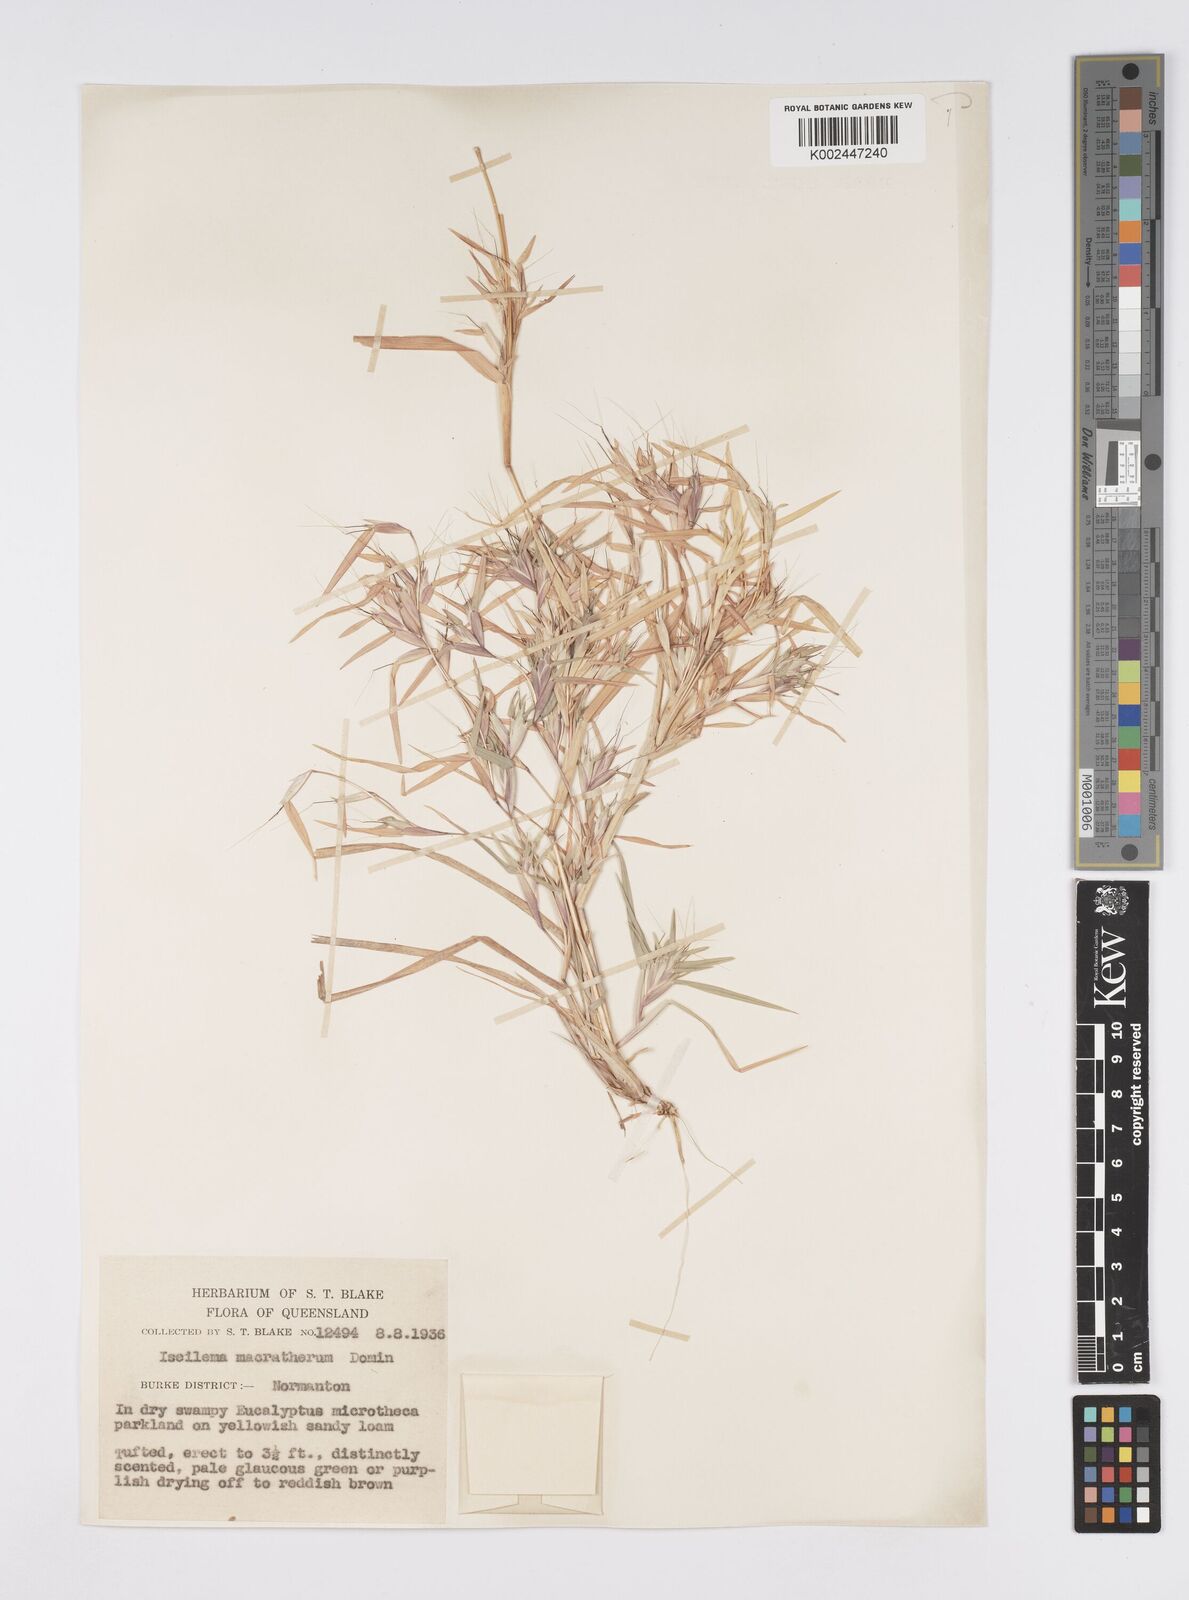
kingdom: Plantae
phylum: Tracheophyta
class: Liliopsida
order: Poales
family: Poaceae
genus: Iseilema
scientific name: Iseilema macratherum
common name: Bull flinders grass
